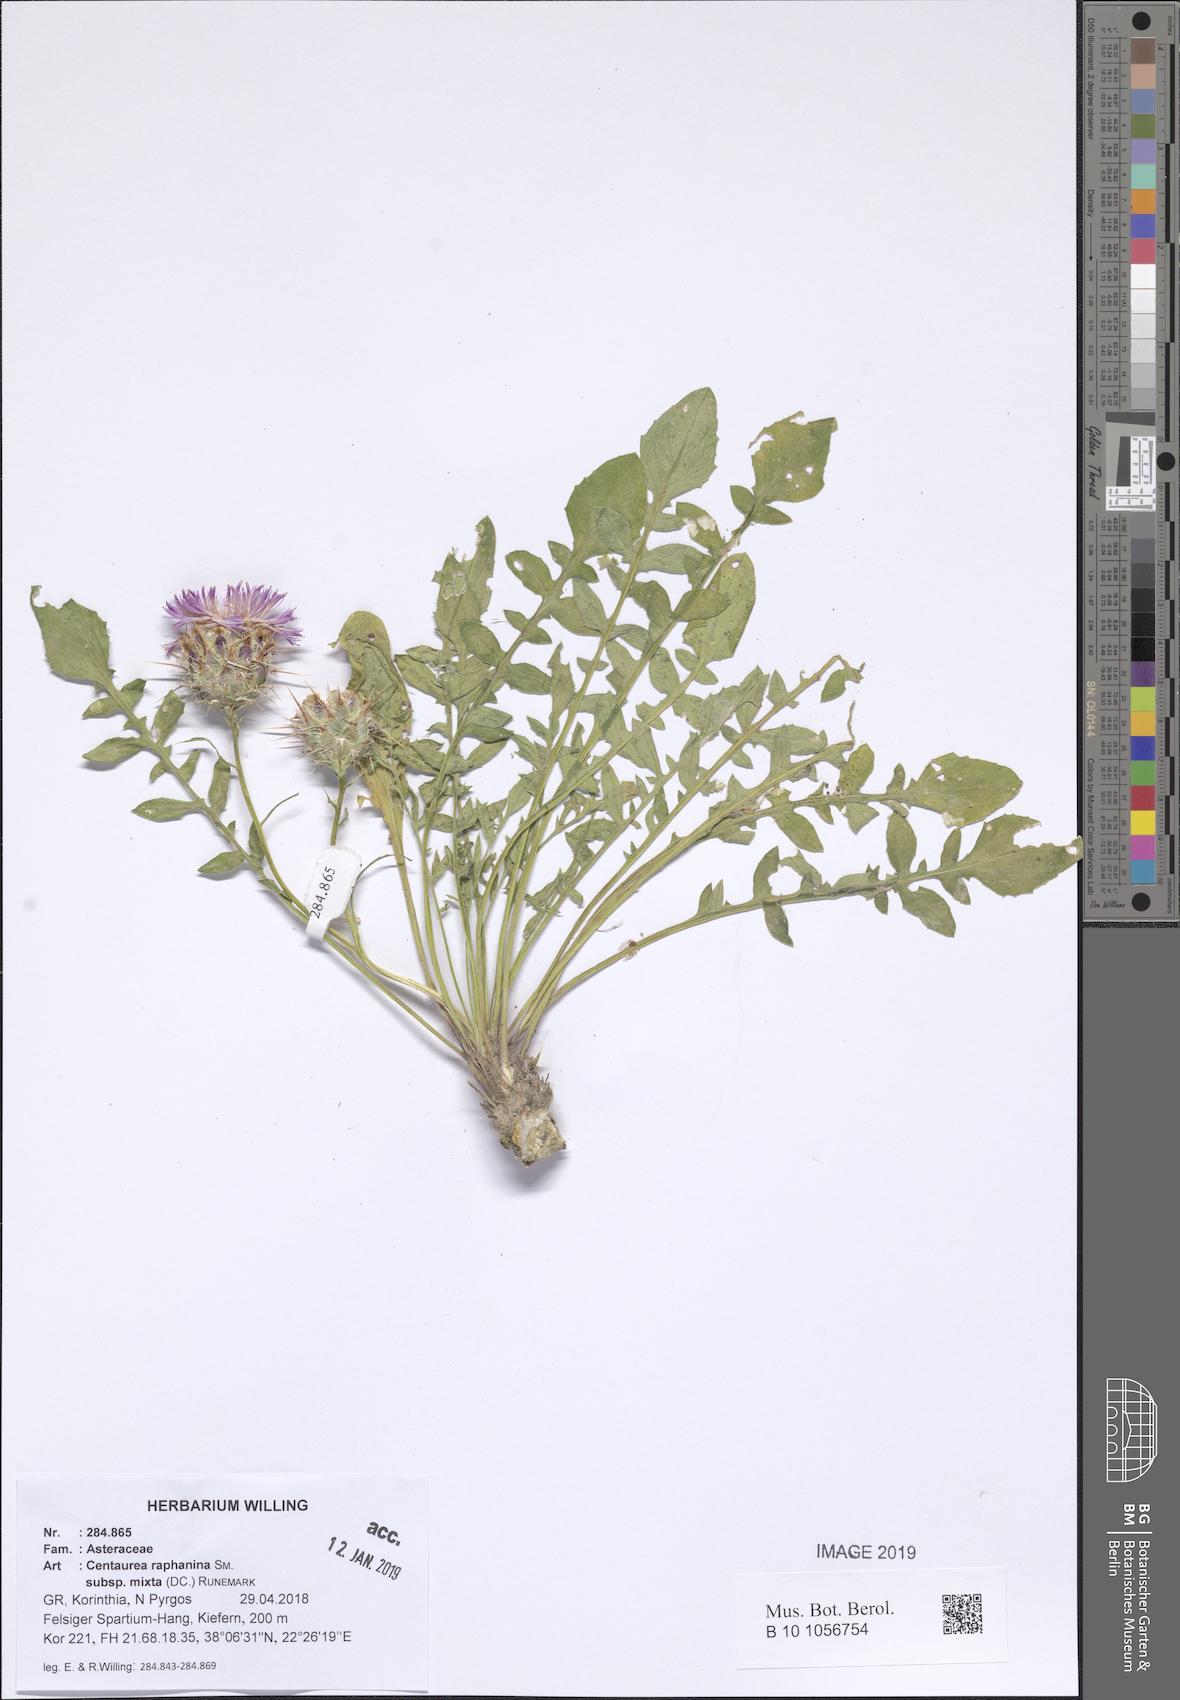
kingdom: Plantae
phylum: Tracheophyta
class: Magnoliopsida
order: Asterales
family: Asteraceae
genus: Centaurea
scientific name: Centaurea raphanina
